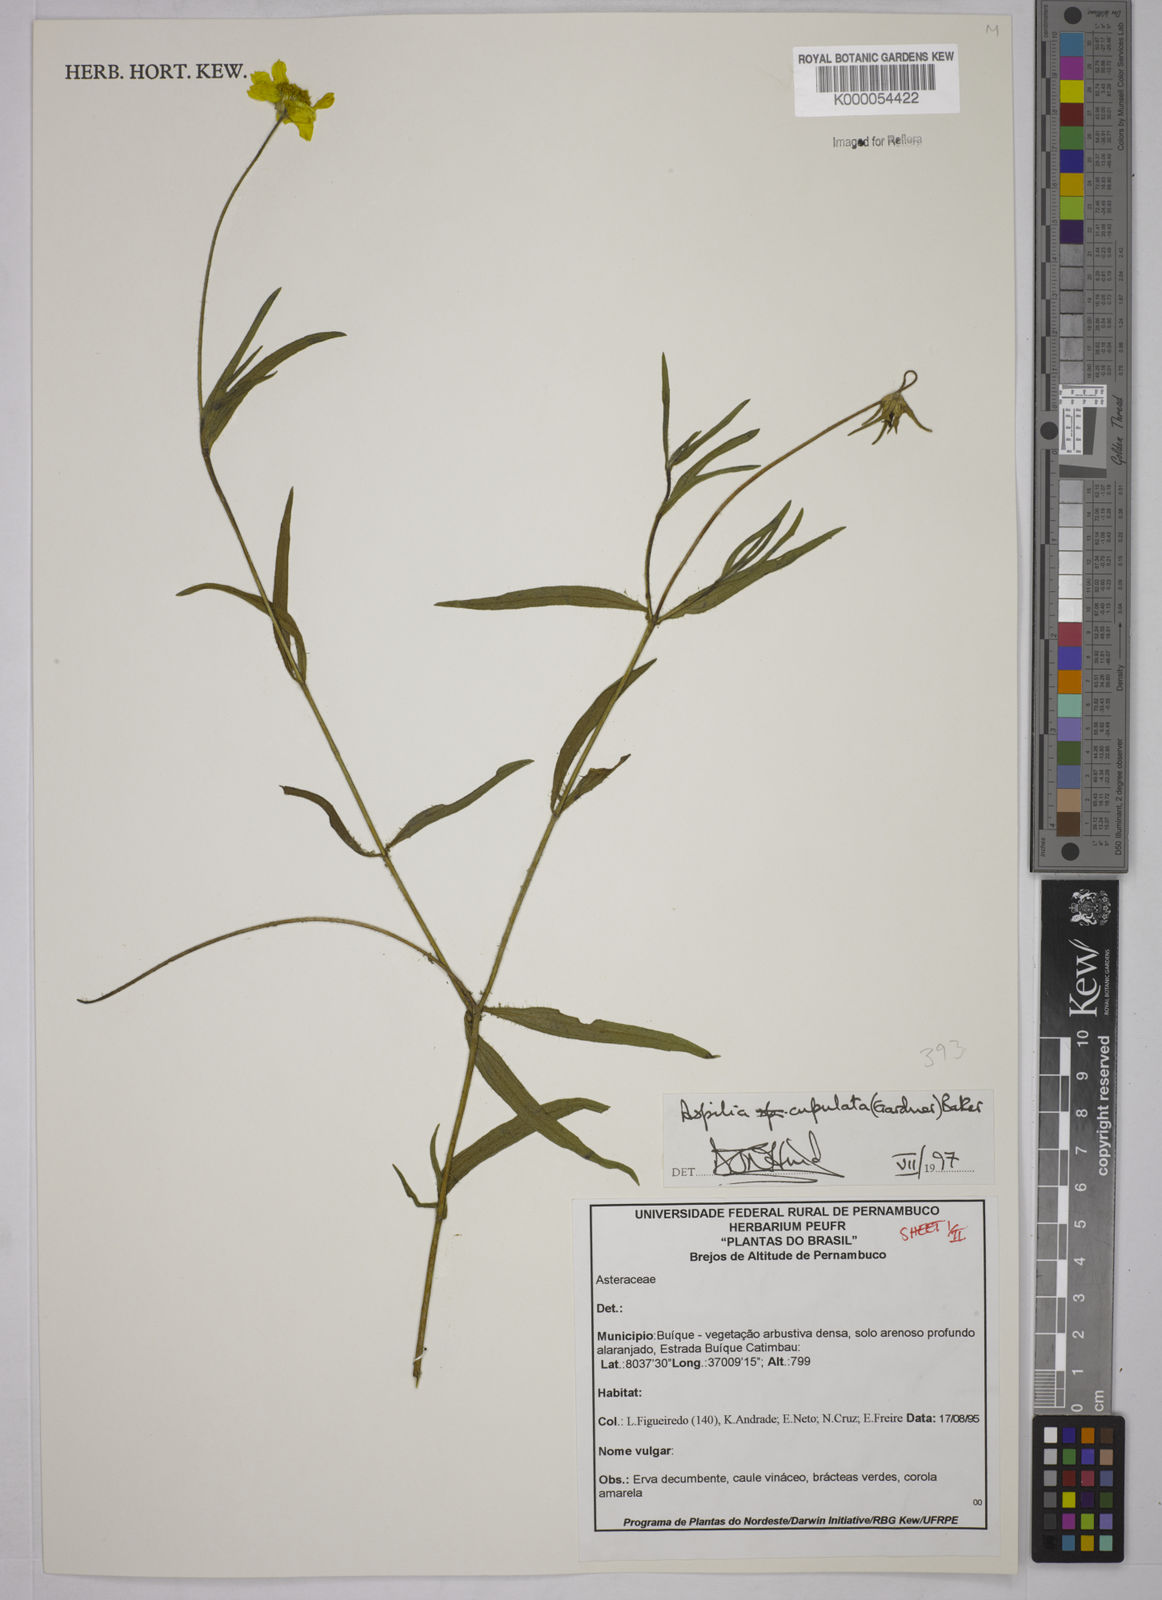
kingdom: Plantae
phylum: Tracheophyta
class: Magnoliopsida
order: Asterales
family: Asteraceae
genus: Wedelia
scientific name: Wedelia angustifolia
